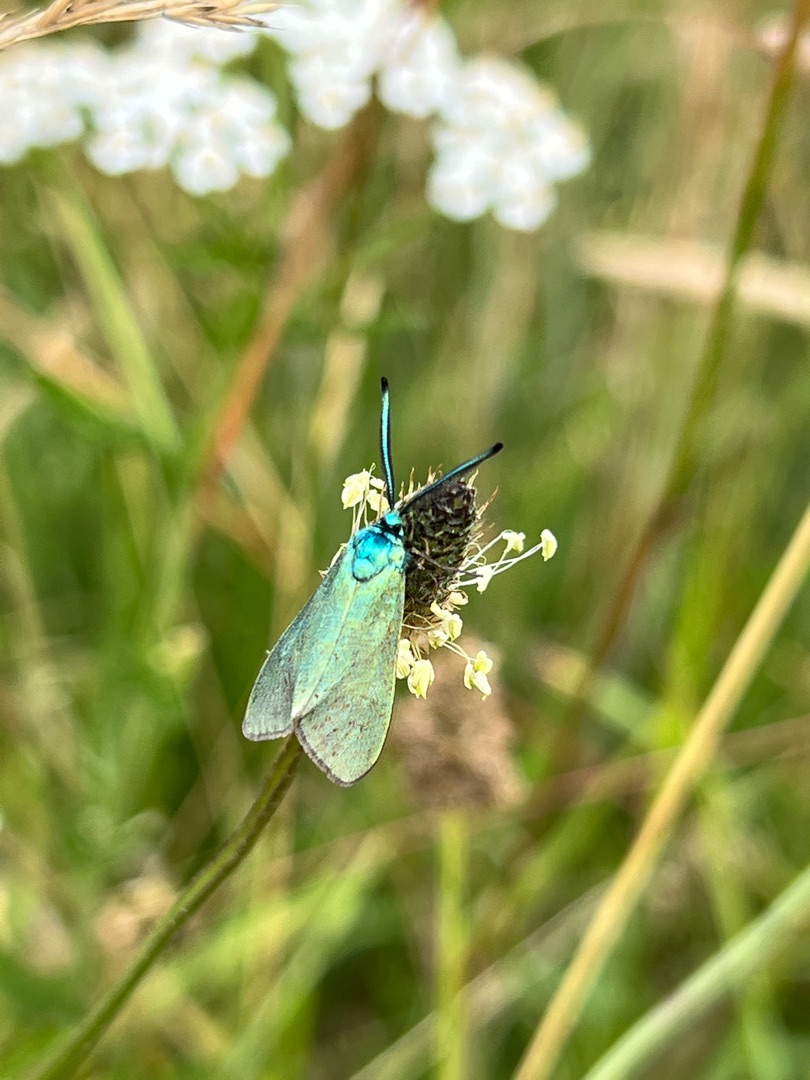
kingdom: Animalia
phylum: Arthropoda
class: Insecta
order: Lepidoptera
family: Zygaenidae
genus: Adscita
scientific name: Adscita statices
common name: Metalvinge
